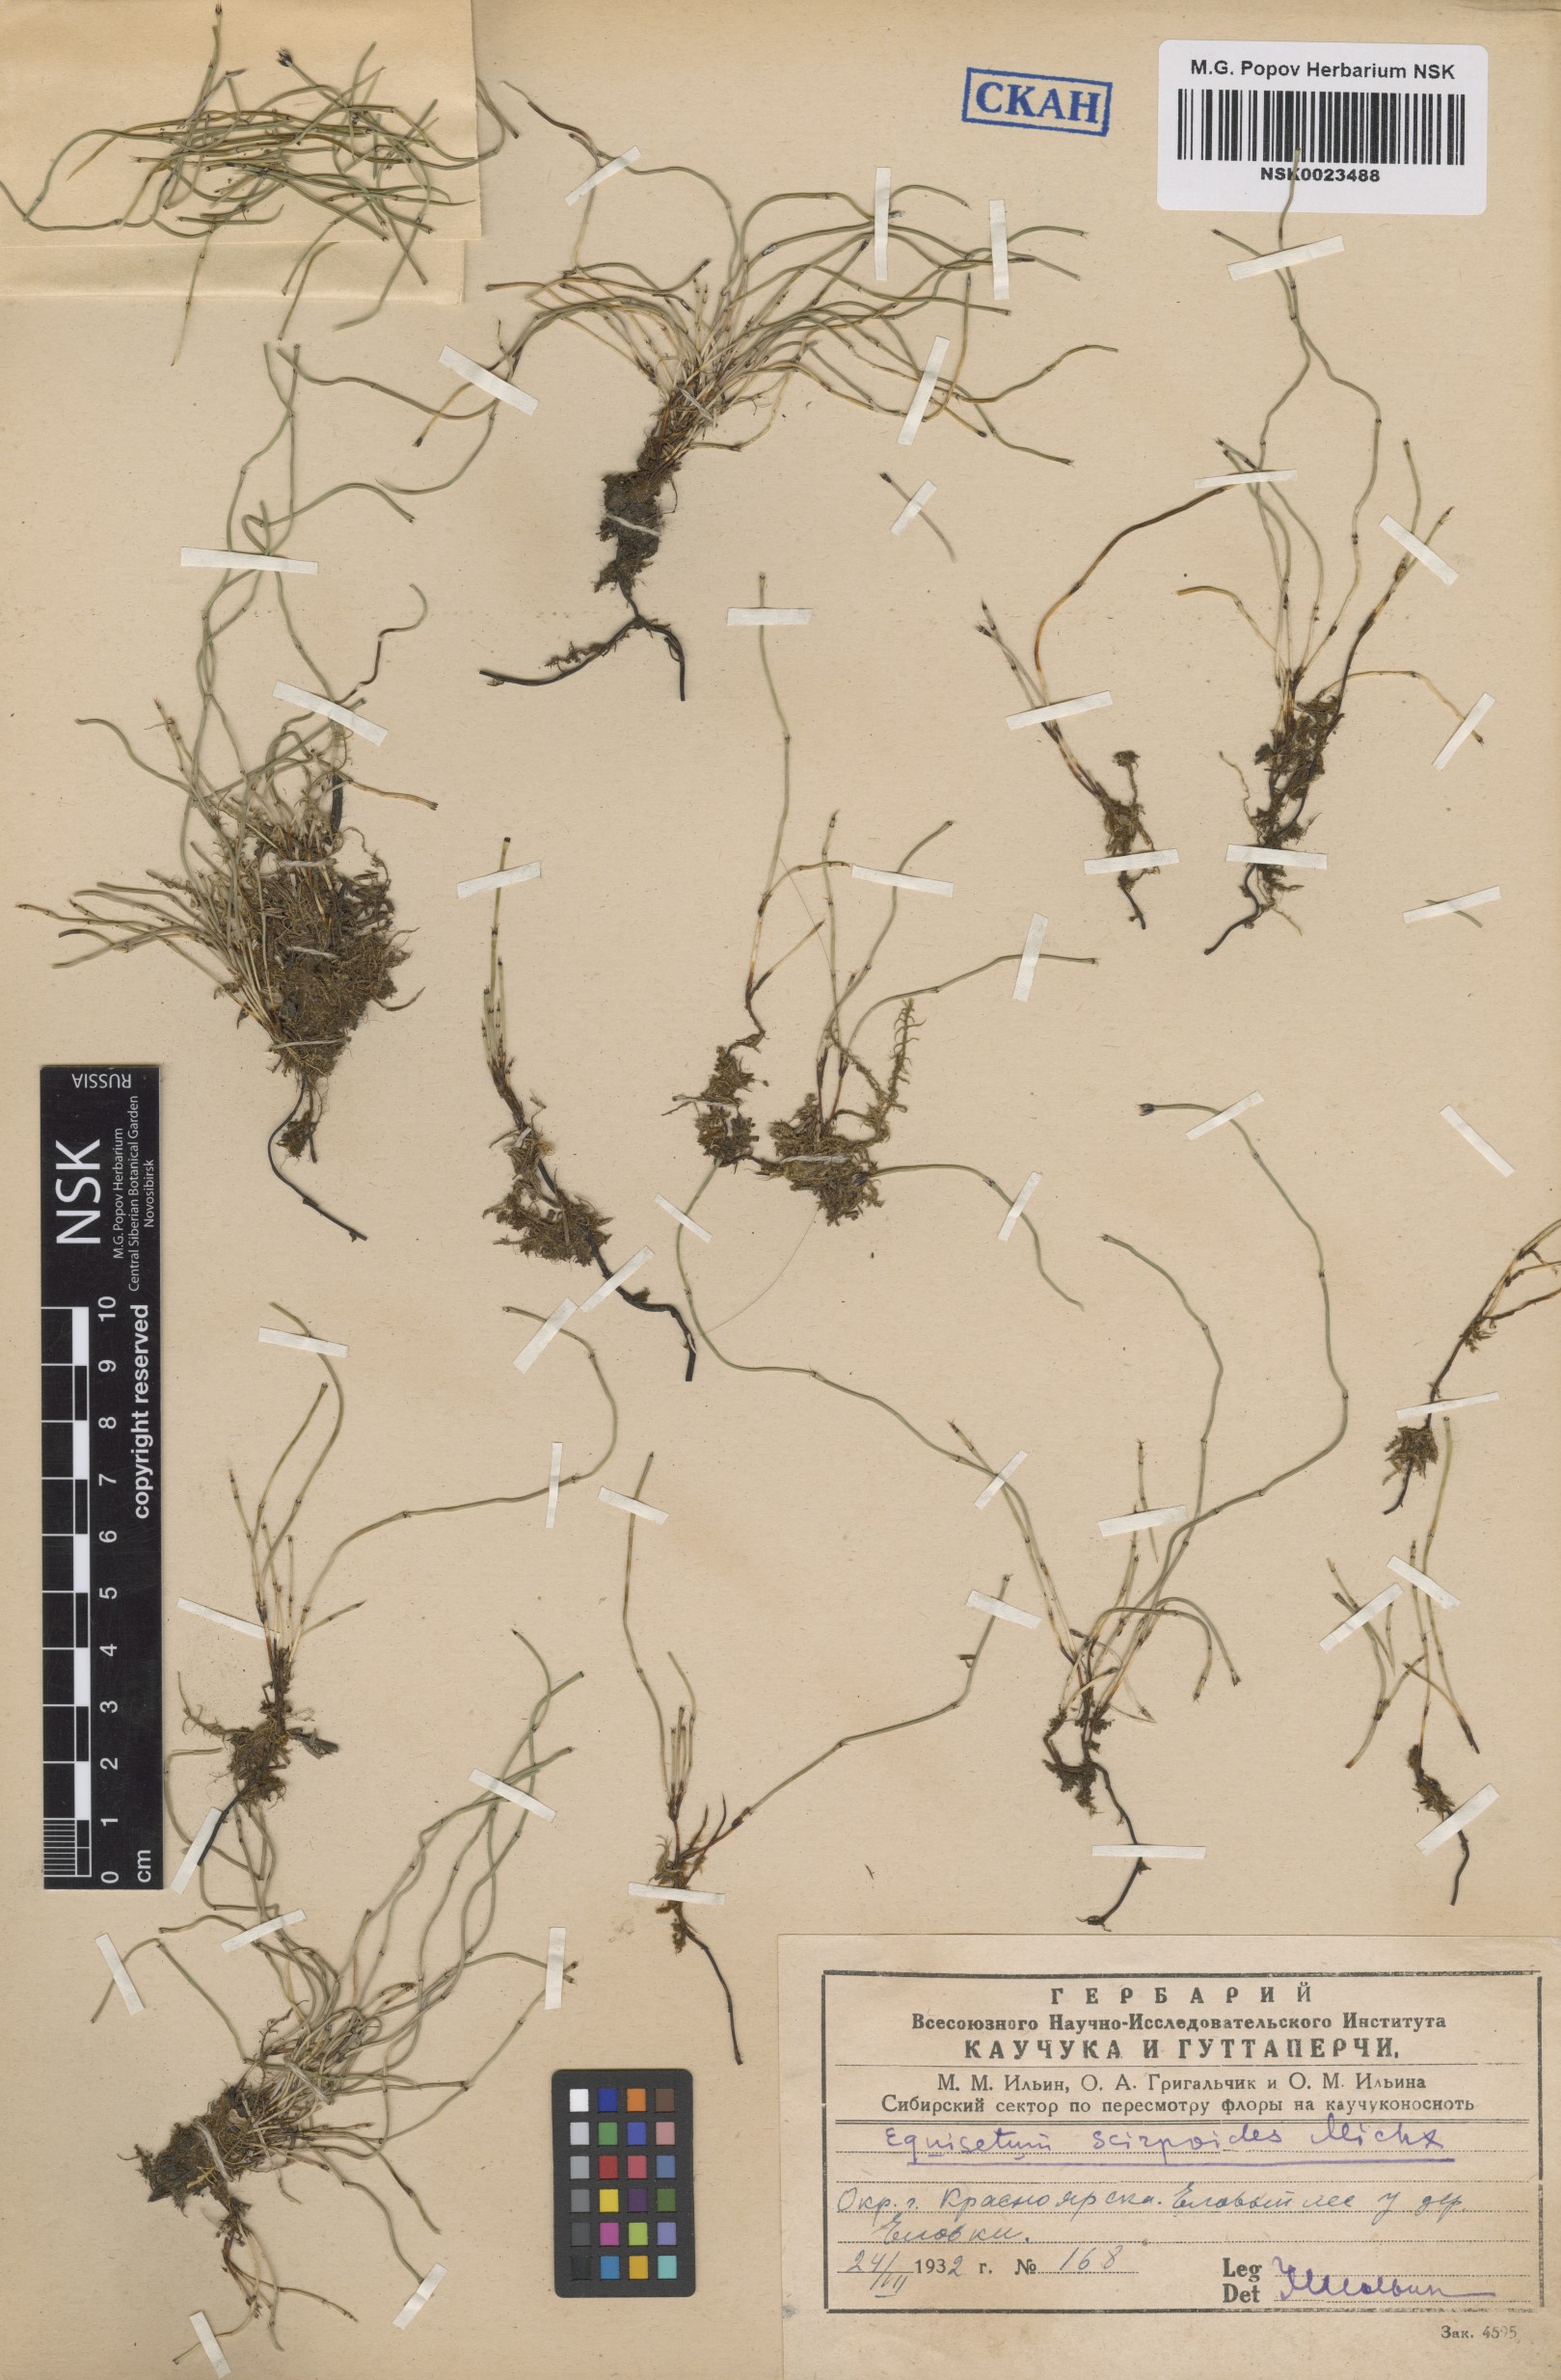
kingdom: Plantae
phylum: Tracheophyta
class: Polypodiopsida
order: Equisetales
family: Equisetaceae
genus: Equisetum
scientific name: Equisetum scirpoides
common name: Delicate horsetail
